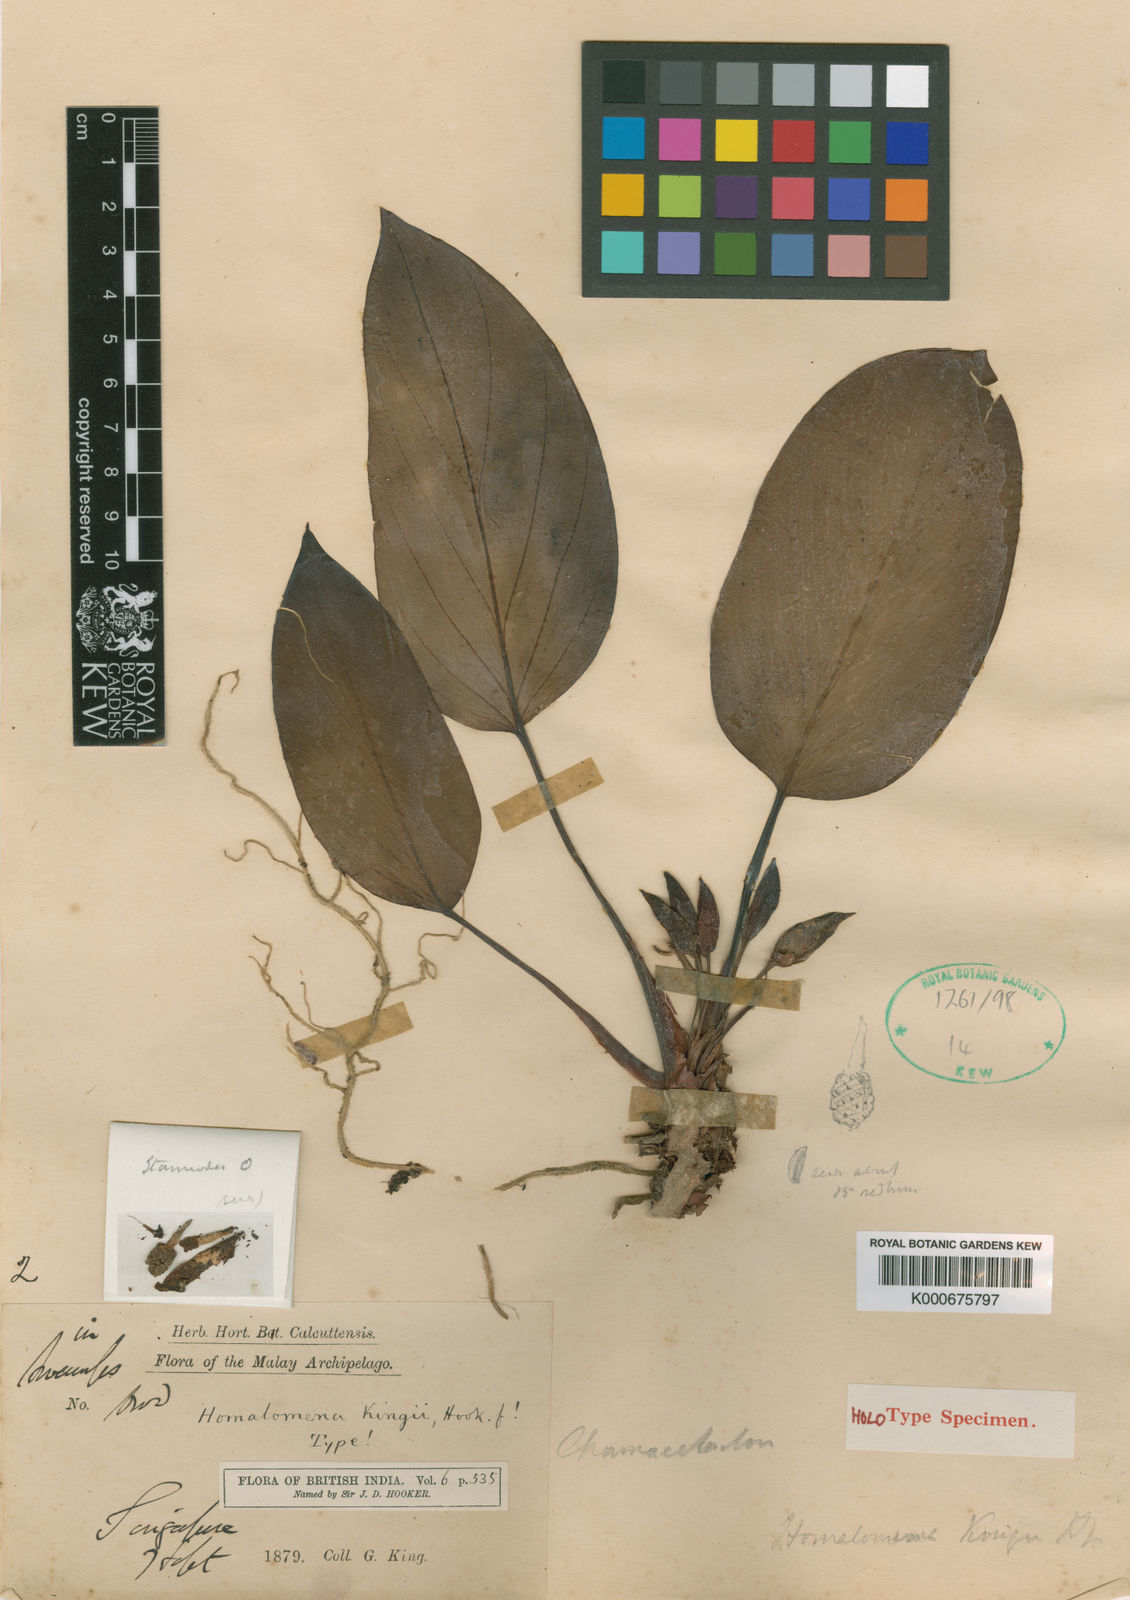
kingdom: Plantae
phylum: Tracheophyta
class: Liliopsida
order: Alismatales
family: Araceae
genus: Homalomena
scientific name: Homalomena griffithii
